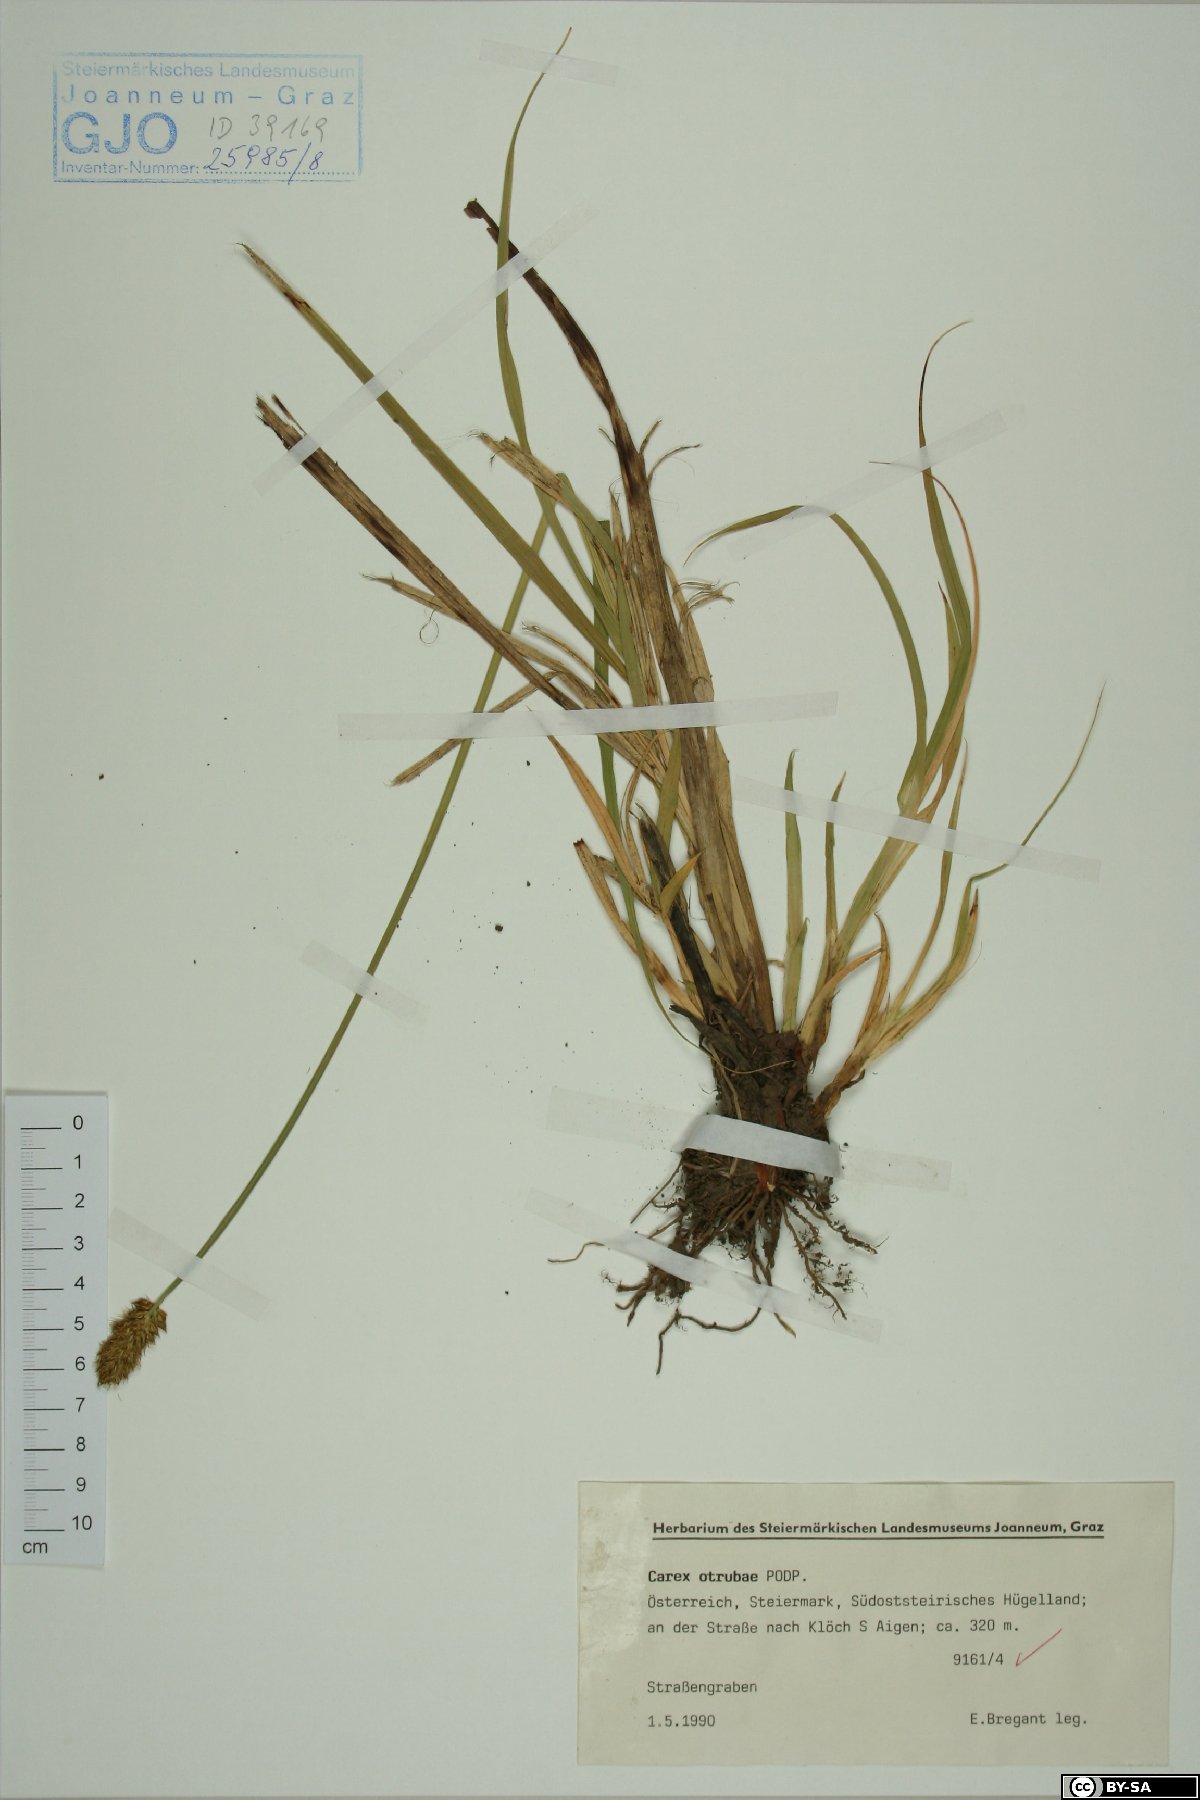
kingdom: Plantae
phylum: Tracheophyta
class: Liliopsida
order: Poales
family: Cyperaceae
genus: Carex
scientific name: Carex otrubae
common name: False fox-sedge
